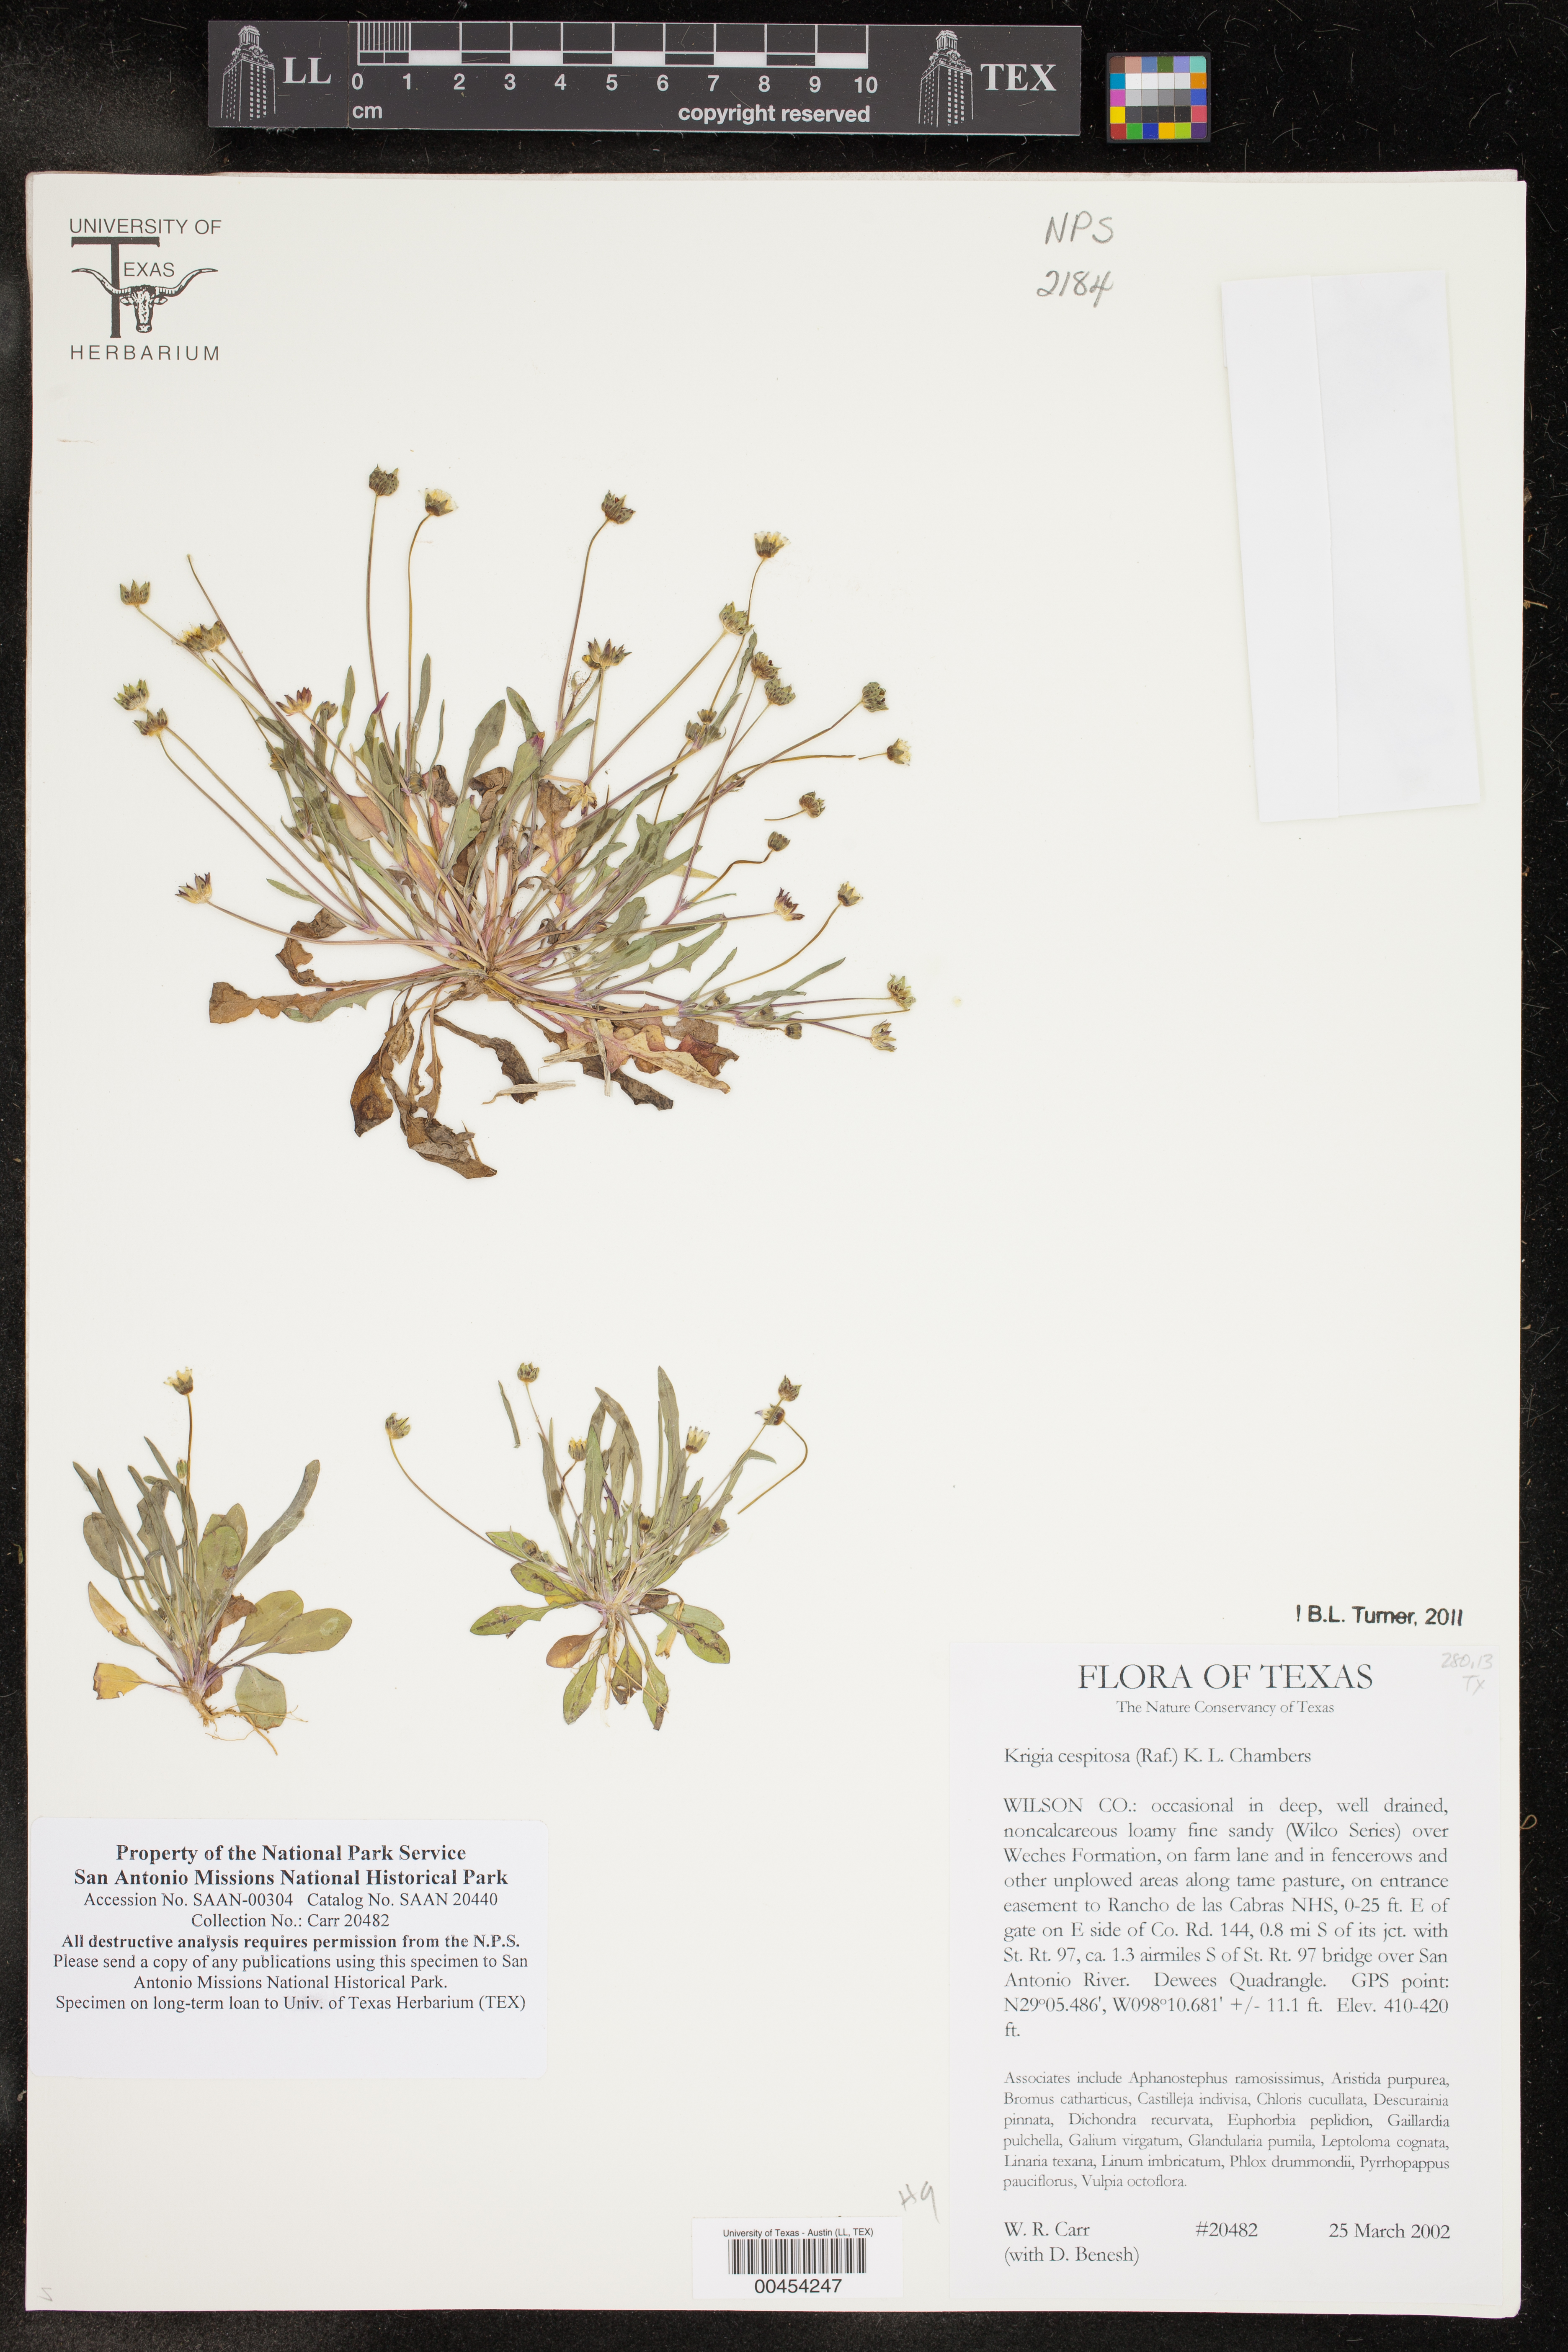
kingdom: Plantae
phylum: Tracheophyta
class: Magnoliopsida
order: Asterales
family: Asteraceae
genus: Krigia
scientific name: Krigia cespitosa
